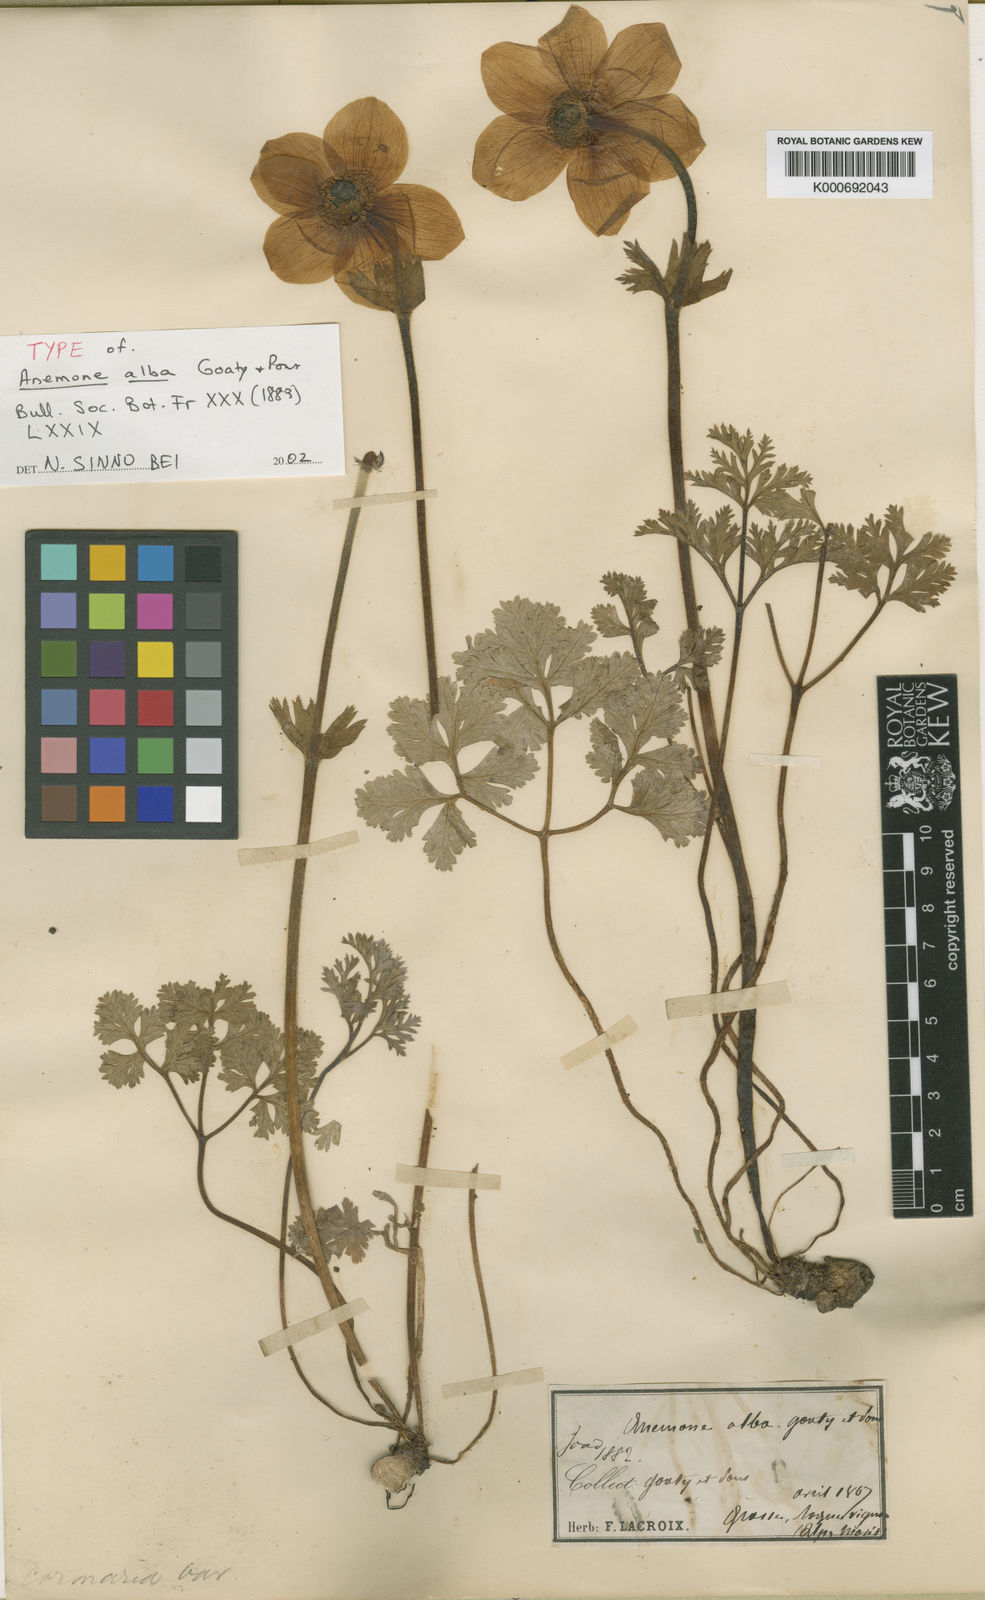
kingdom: Plantae
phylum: Tracheophyta
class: Magnoliopsida
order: Ranunculales
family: Ranunculaceae
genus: Anemone
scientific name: Anemone
